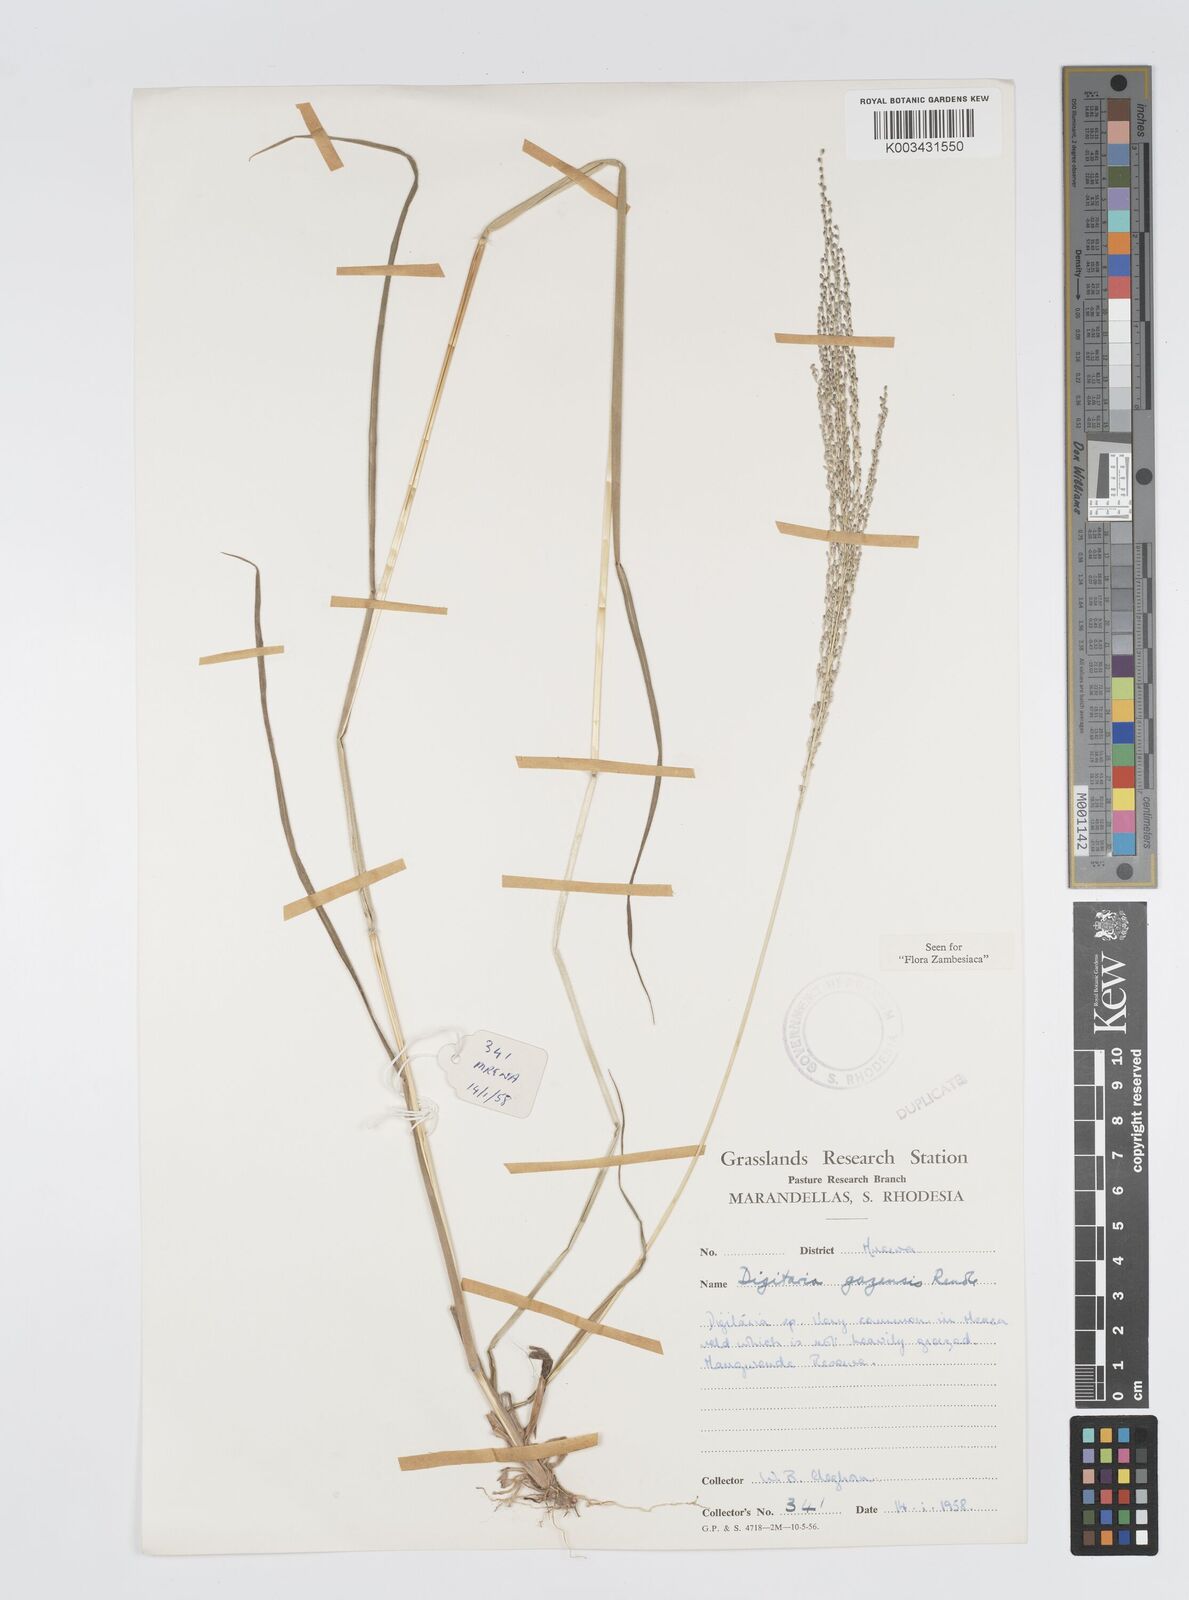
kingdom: Plantae
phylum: Tracheophyta
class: Liliopsida
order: Poales
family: Poaceae
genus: Digitaria
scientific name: Digitaria gazensis
